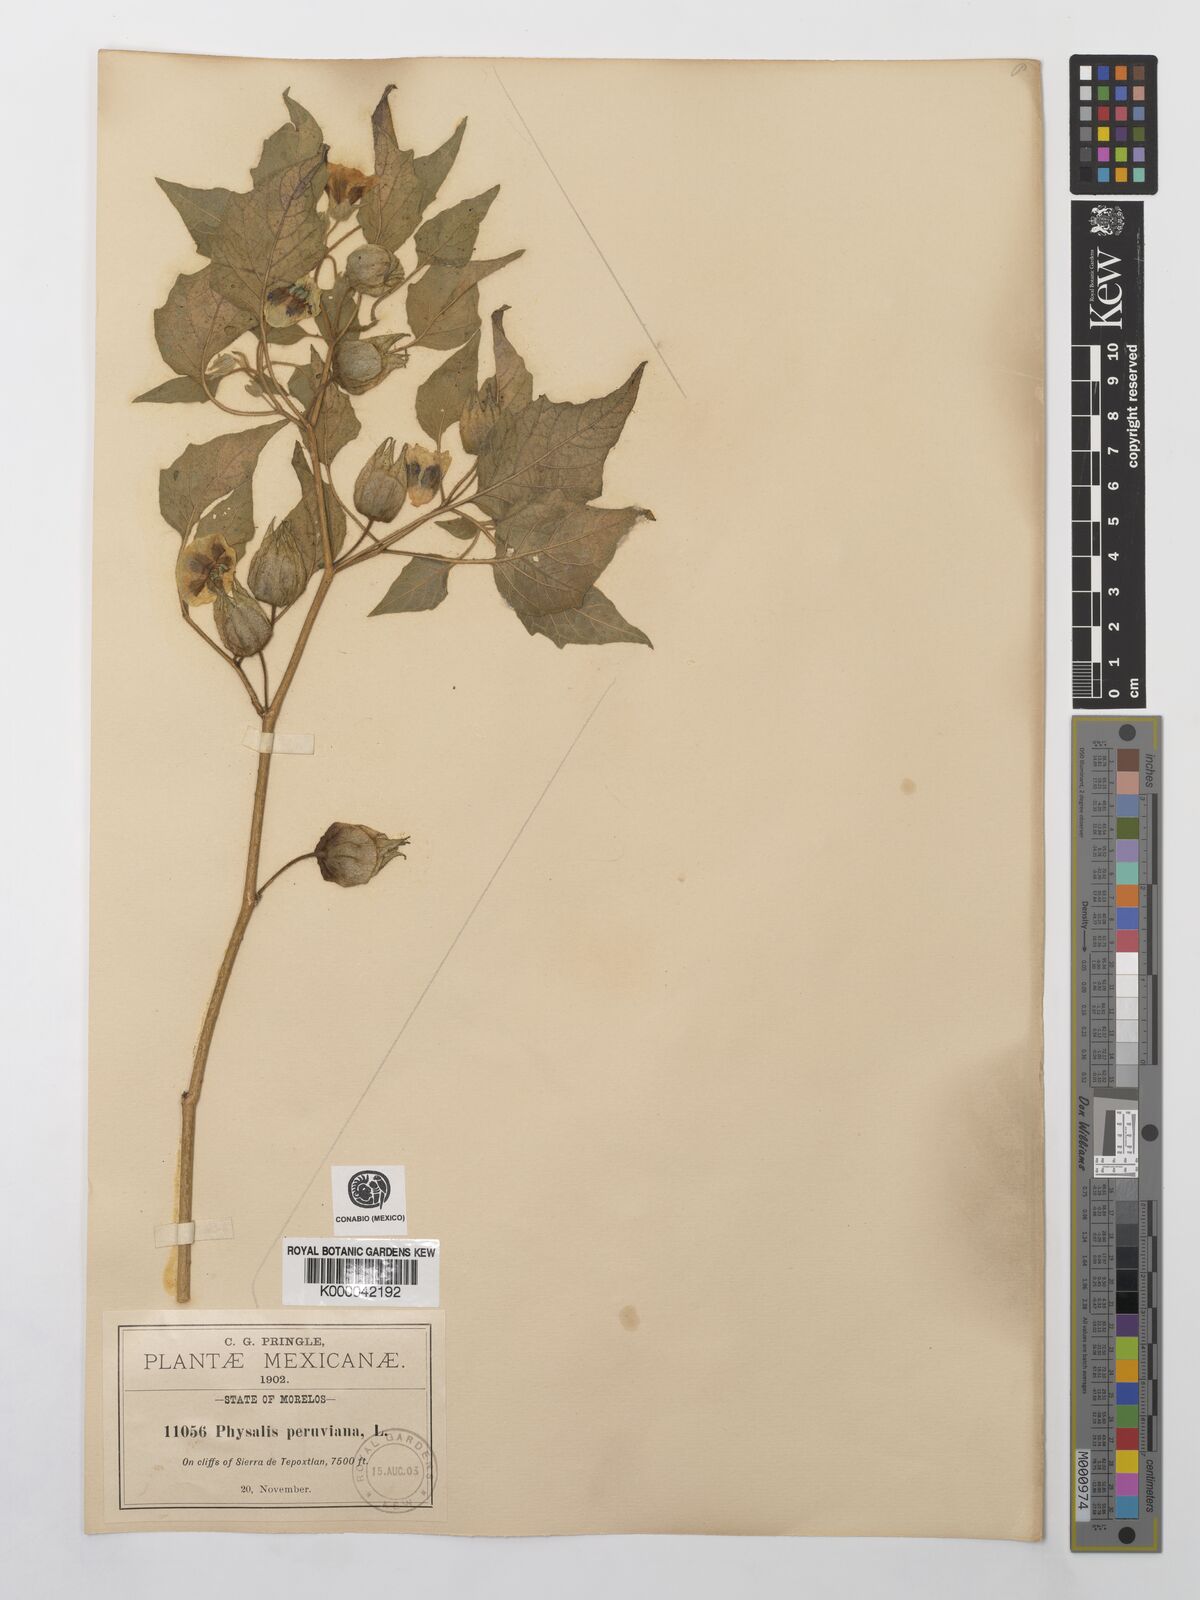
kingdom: Plantae
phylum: Tracheophyta
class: Magnoliopsida
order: Solanales
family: Solanaceae
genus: Physalis
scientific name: Physalis peruviana
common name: Cape-gooseberry
